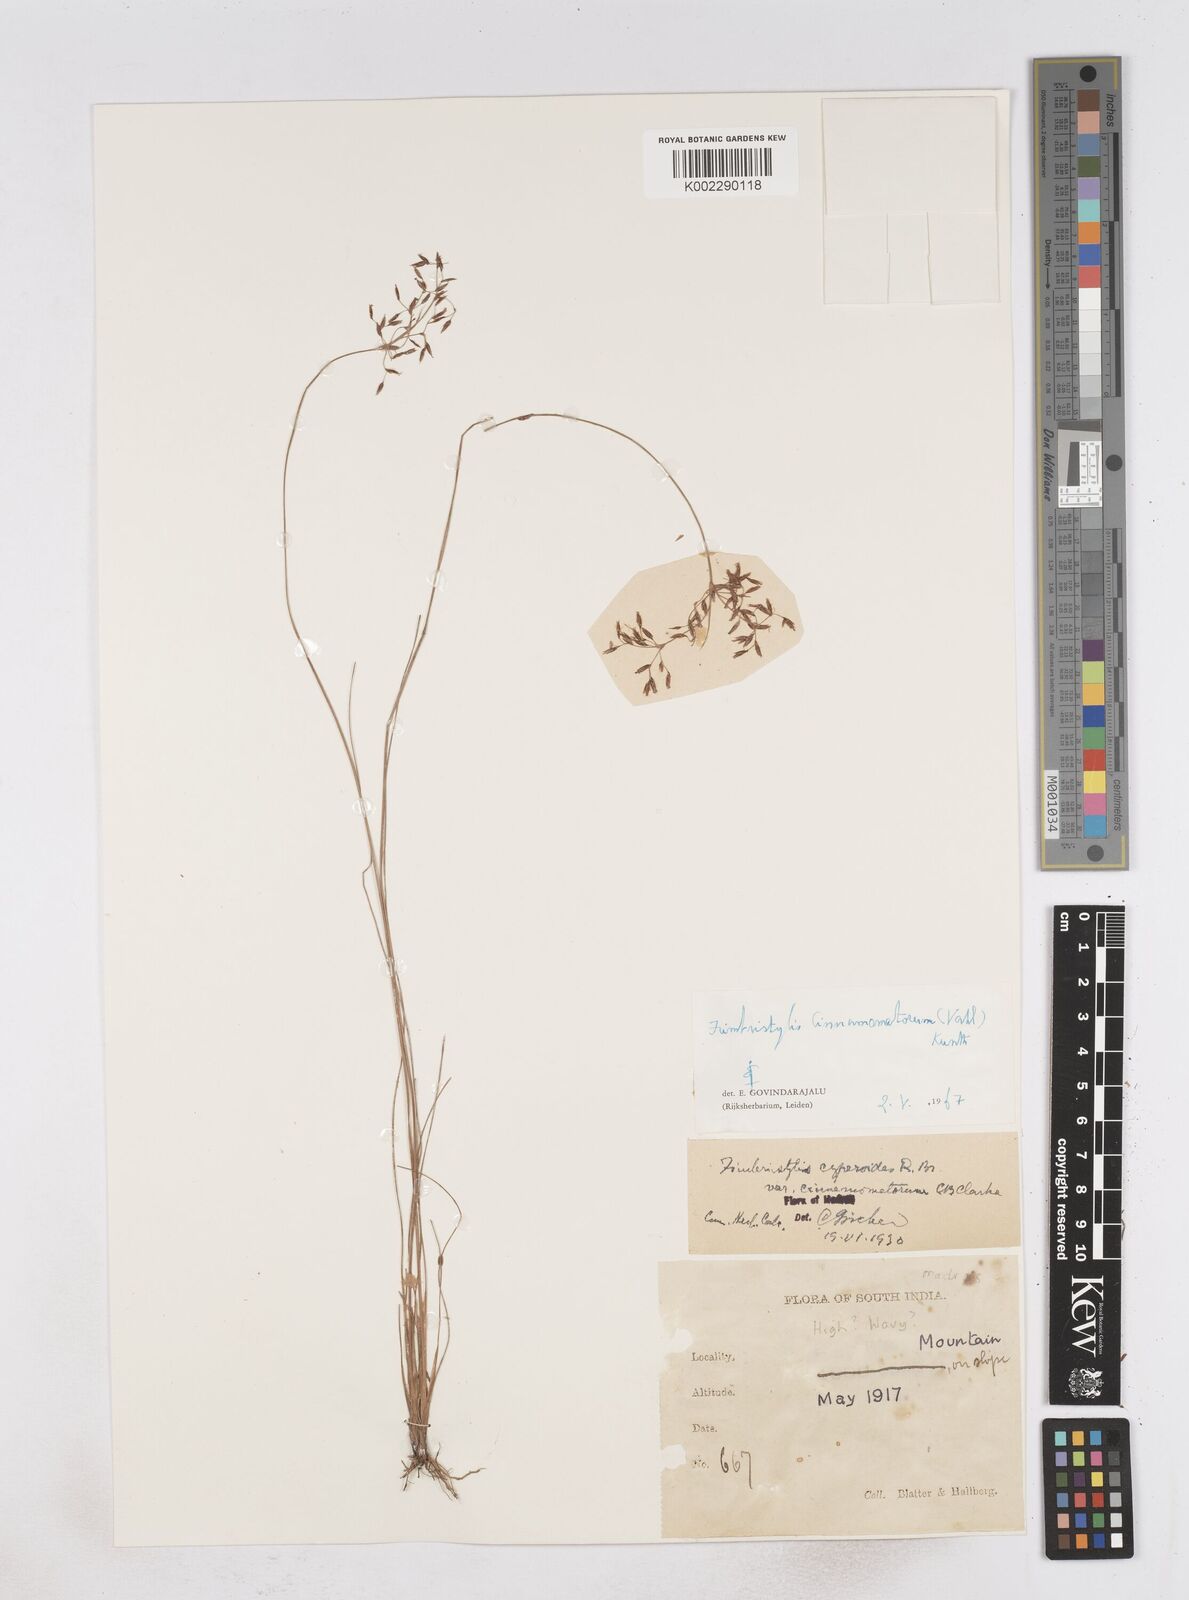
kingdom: Plantae
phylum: Tracheophyta
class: Liliopsida
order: Poales
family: Cyperaceae
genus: Fimbristylis
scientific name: Fimbristylis cinnamometorum
